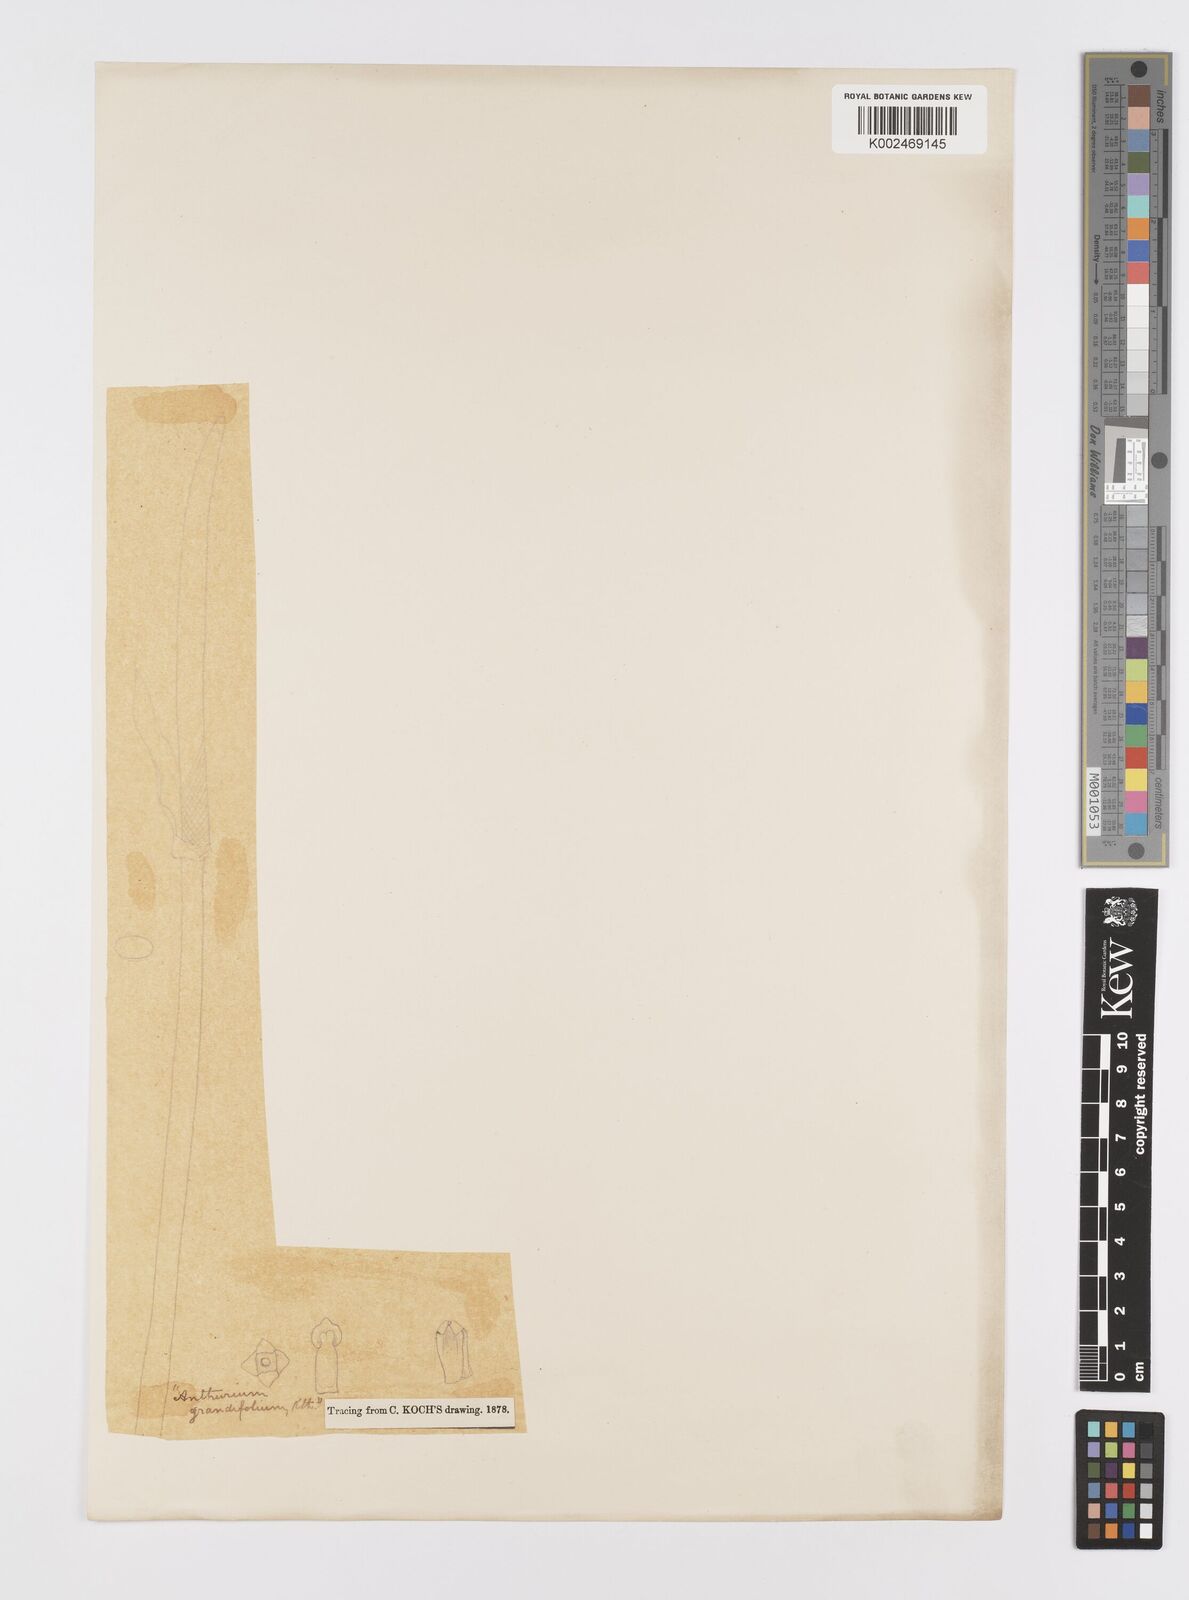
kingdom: Plantae
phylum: Tracheophyta
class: Liliopsida
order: Alismatales
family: Araceae
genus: Anthurium
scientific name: Anthurium grandifolium
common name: Monkey tail
